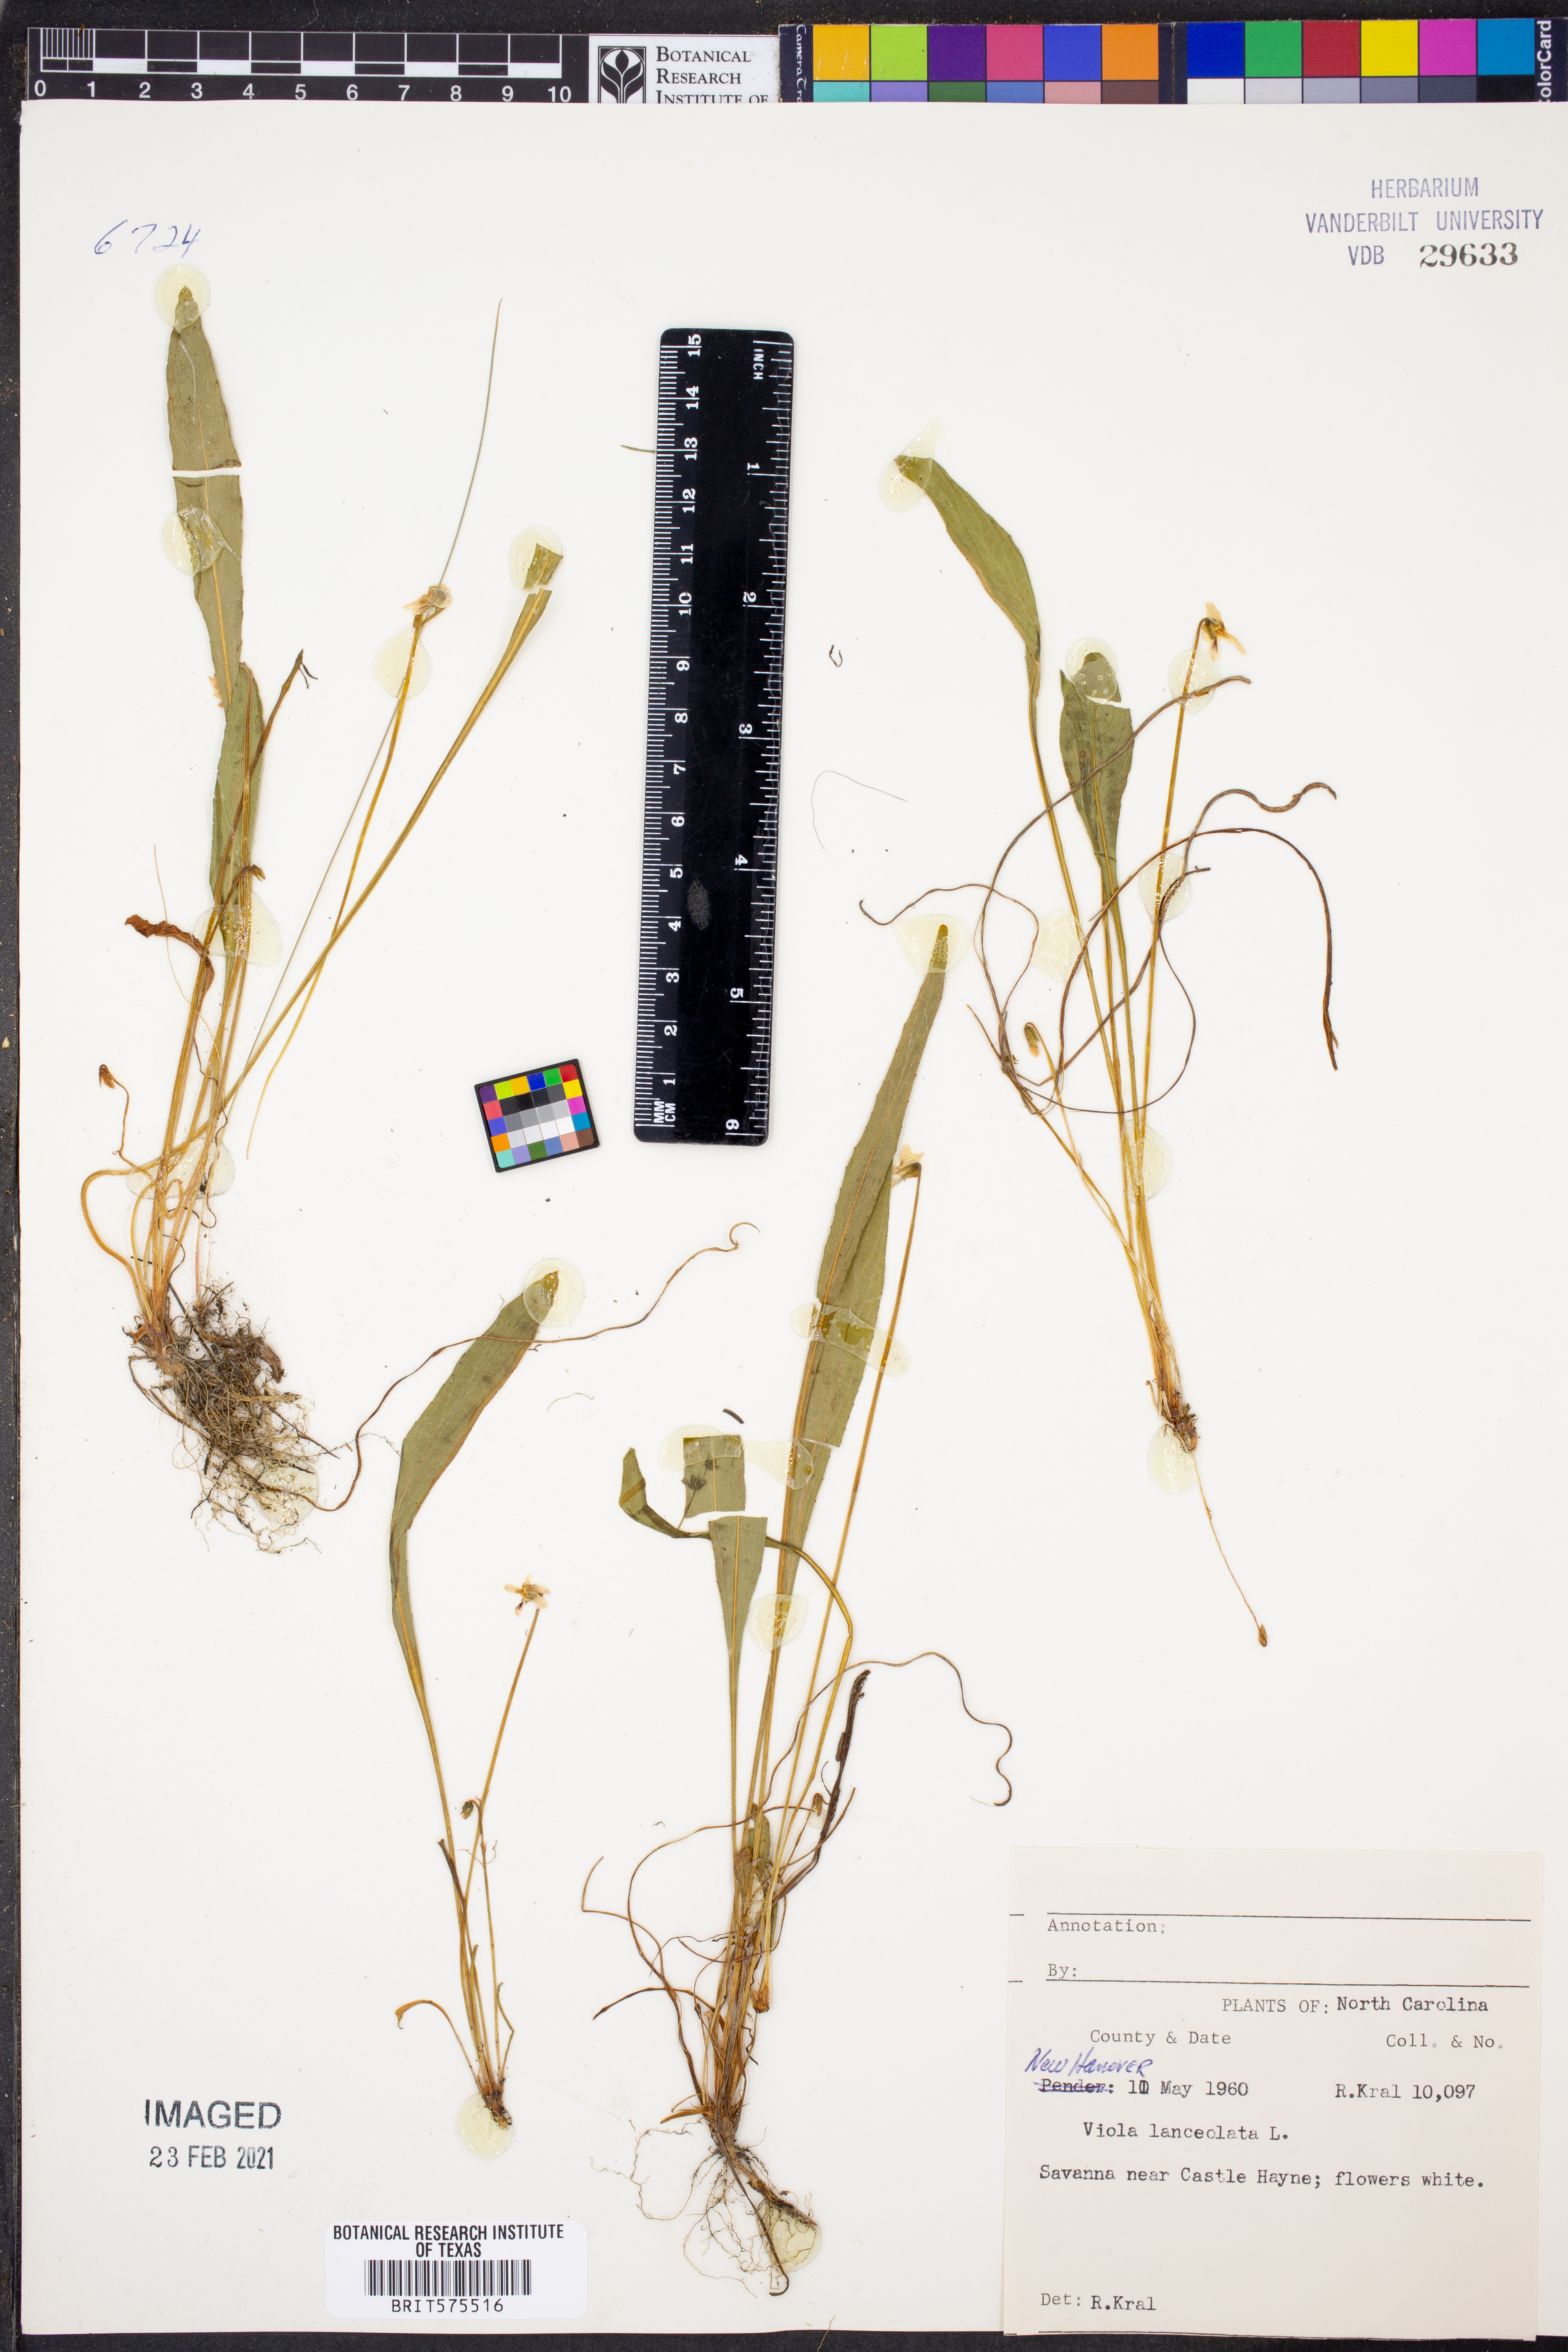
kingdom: Plantae
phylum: Tracheophyta
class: Magnoliopsida
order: Malpighiales
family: Violaceae
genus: Viola
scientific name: Viola lanceolata
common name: Bog white violet
